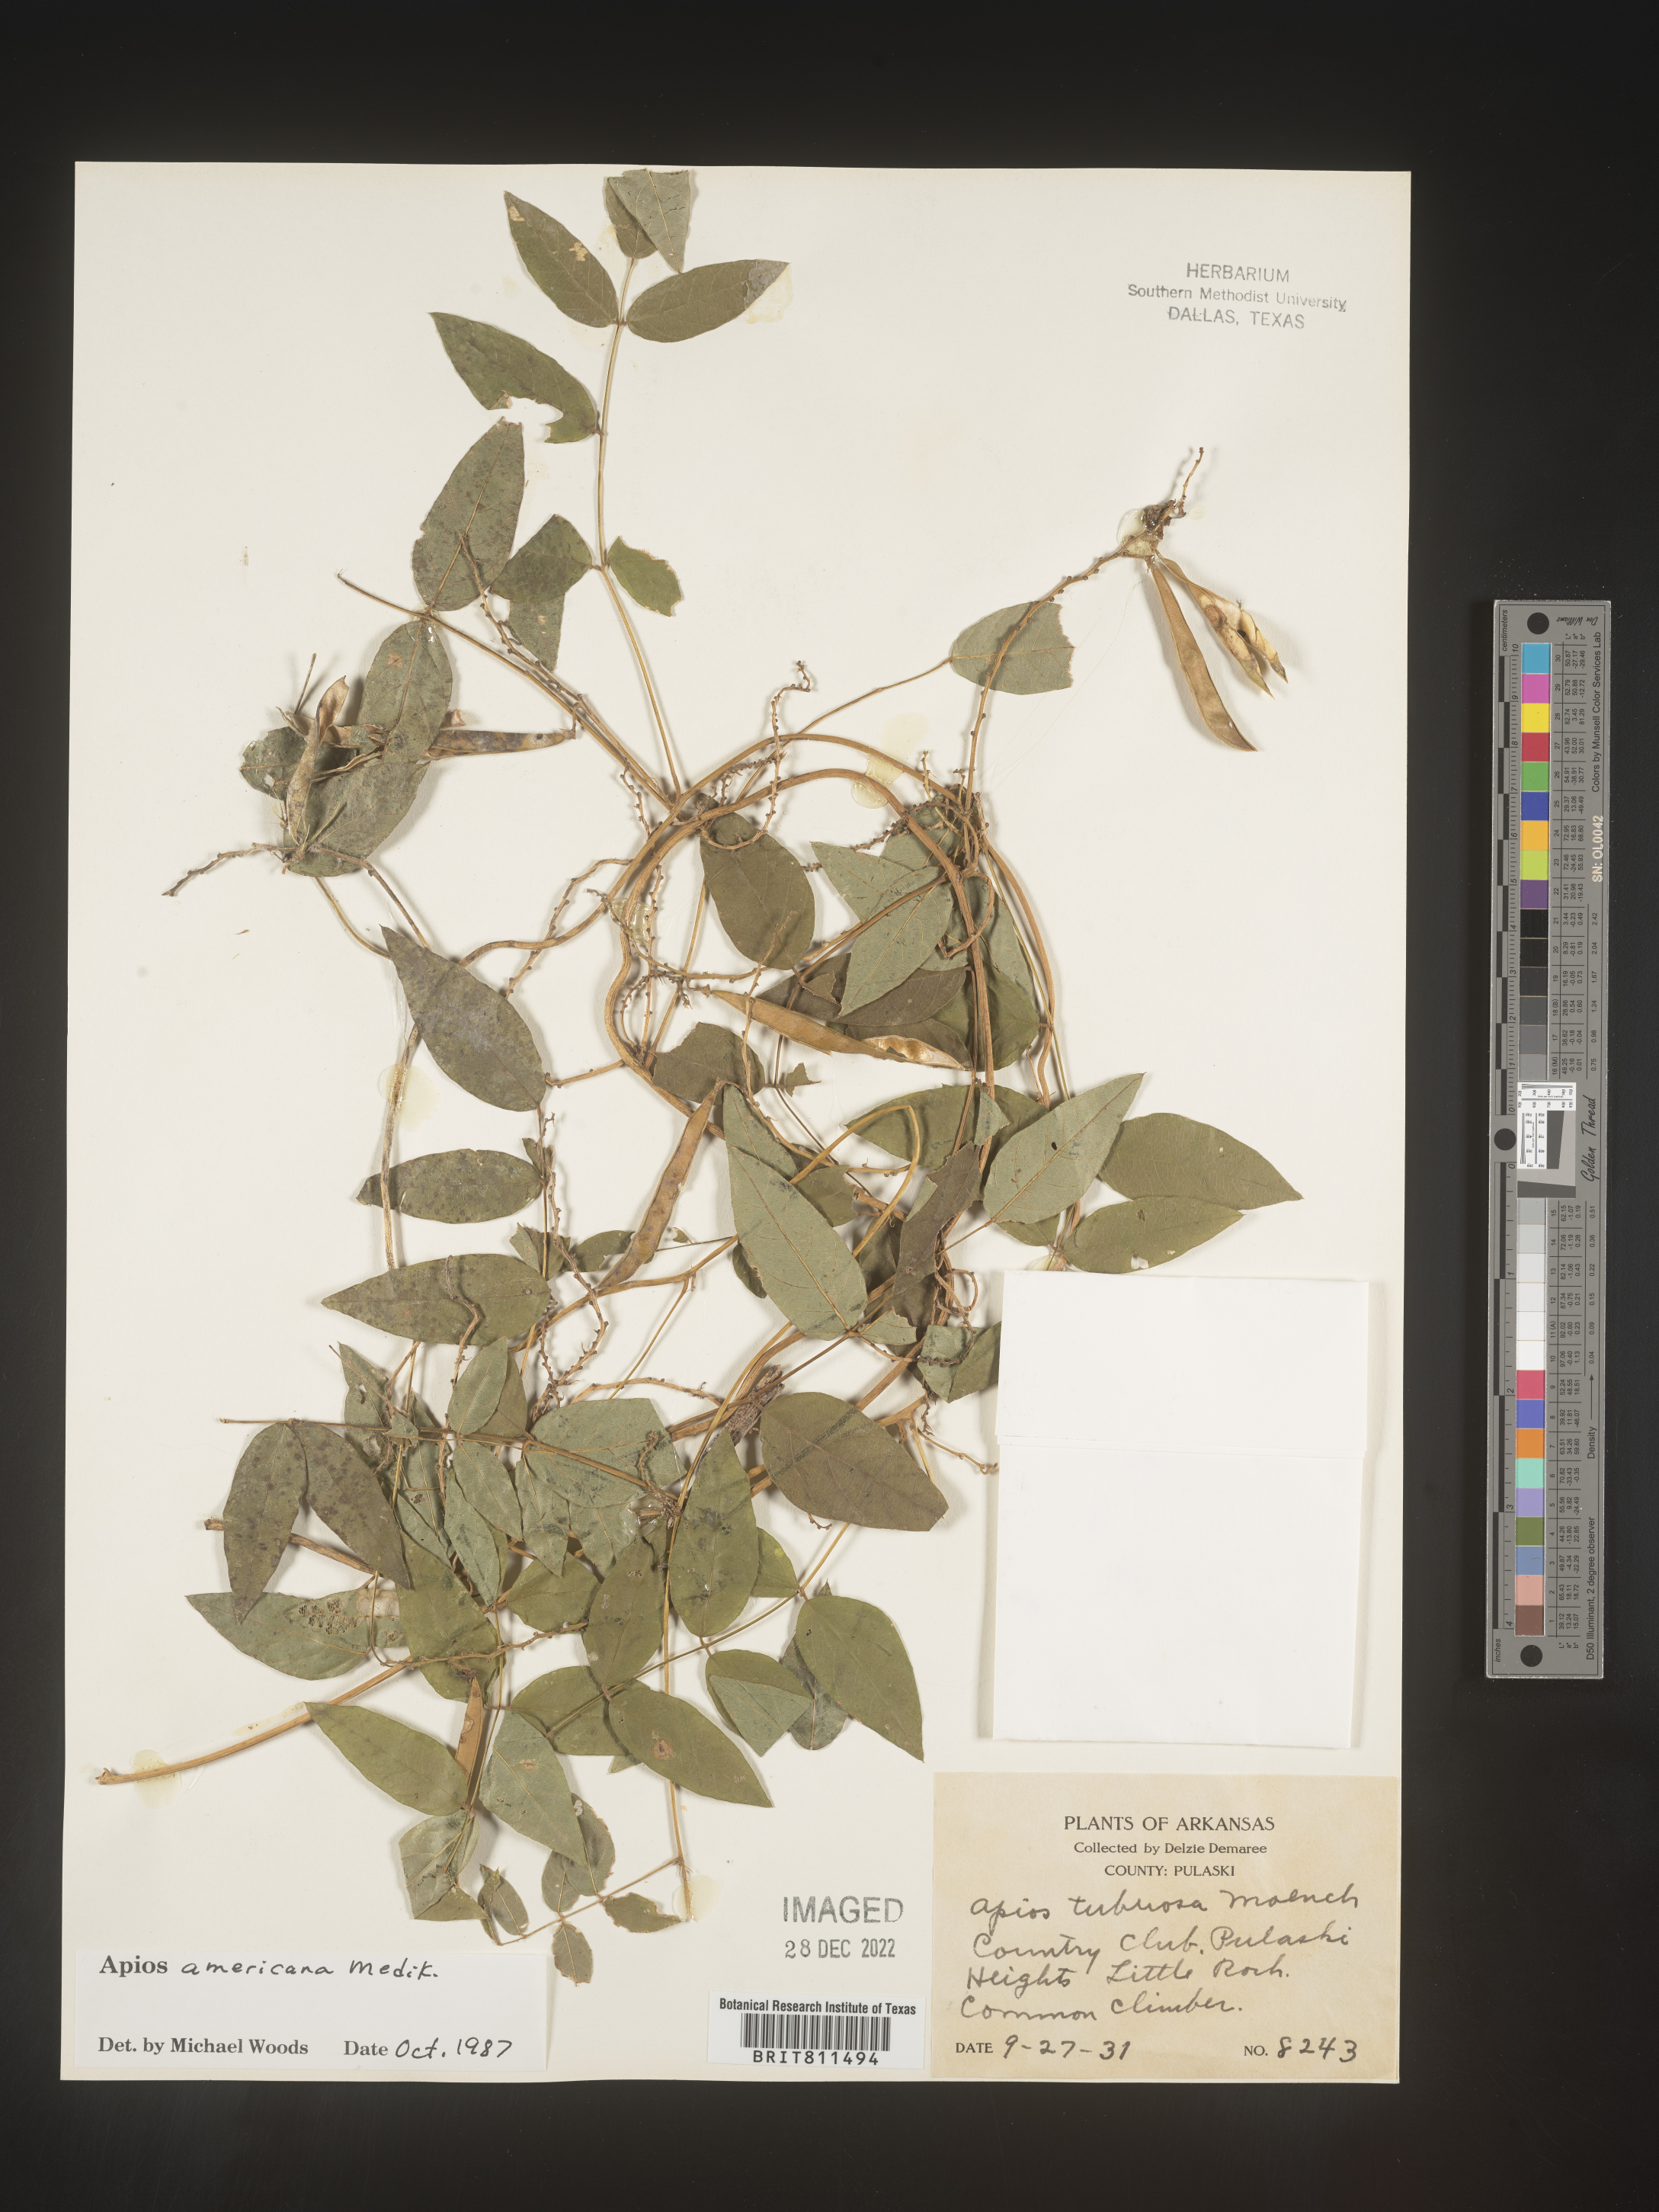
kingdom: Plantae
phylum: Tracheophyta
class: Magnoliopsida
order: Fabales
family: Fabaceae
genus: Apios
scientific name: Apios americana
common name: American potato-bean
